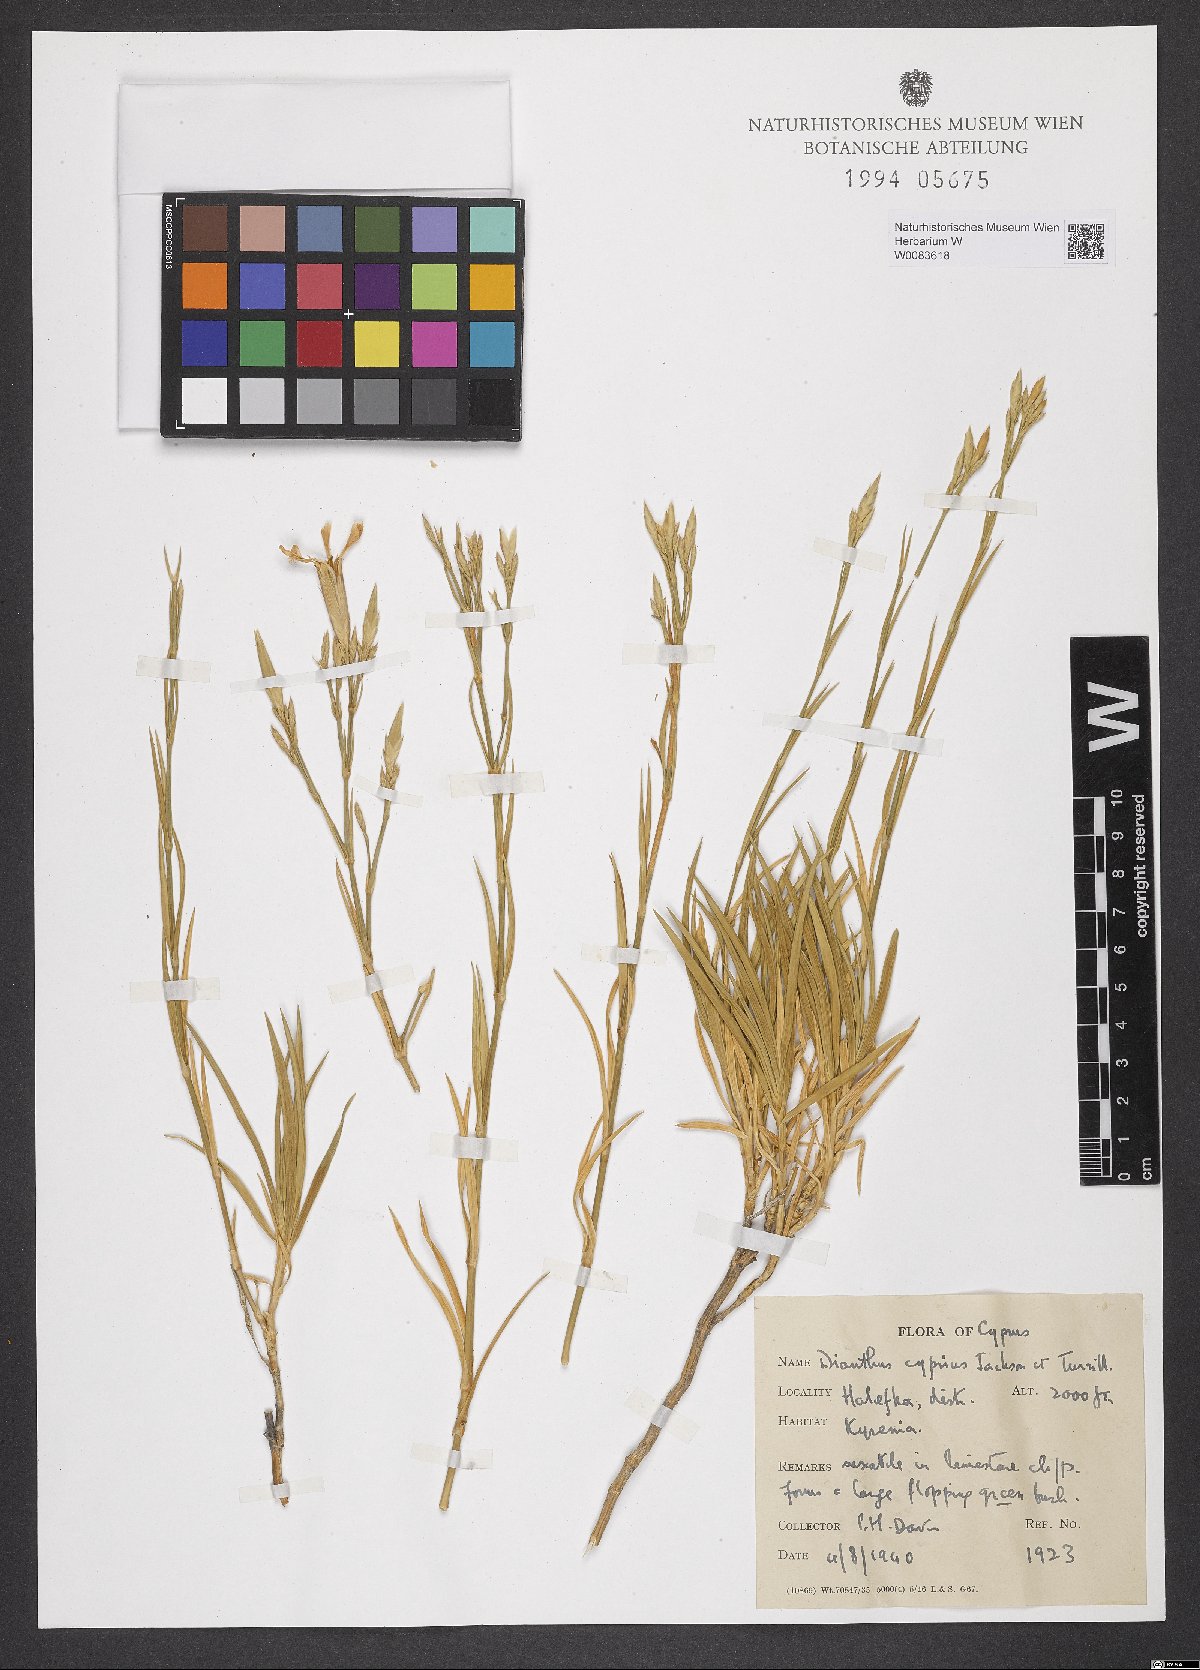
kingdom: Plantae
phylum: Tracheophyta
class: Magnoliopsida
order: Caryophyllales
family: Caryophyllaceae
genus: Dianthus
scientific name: Dianthus cyprius
